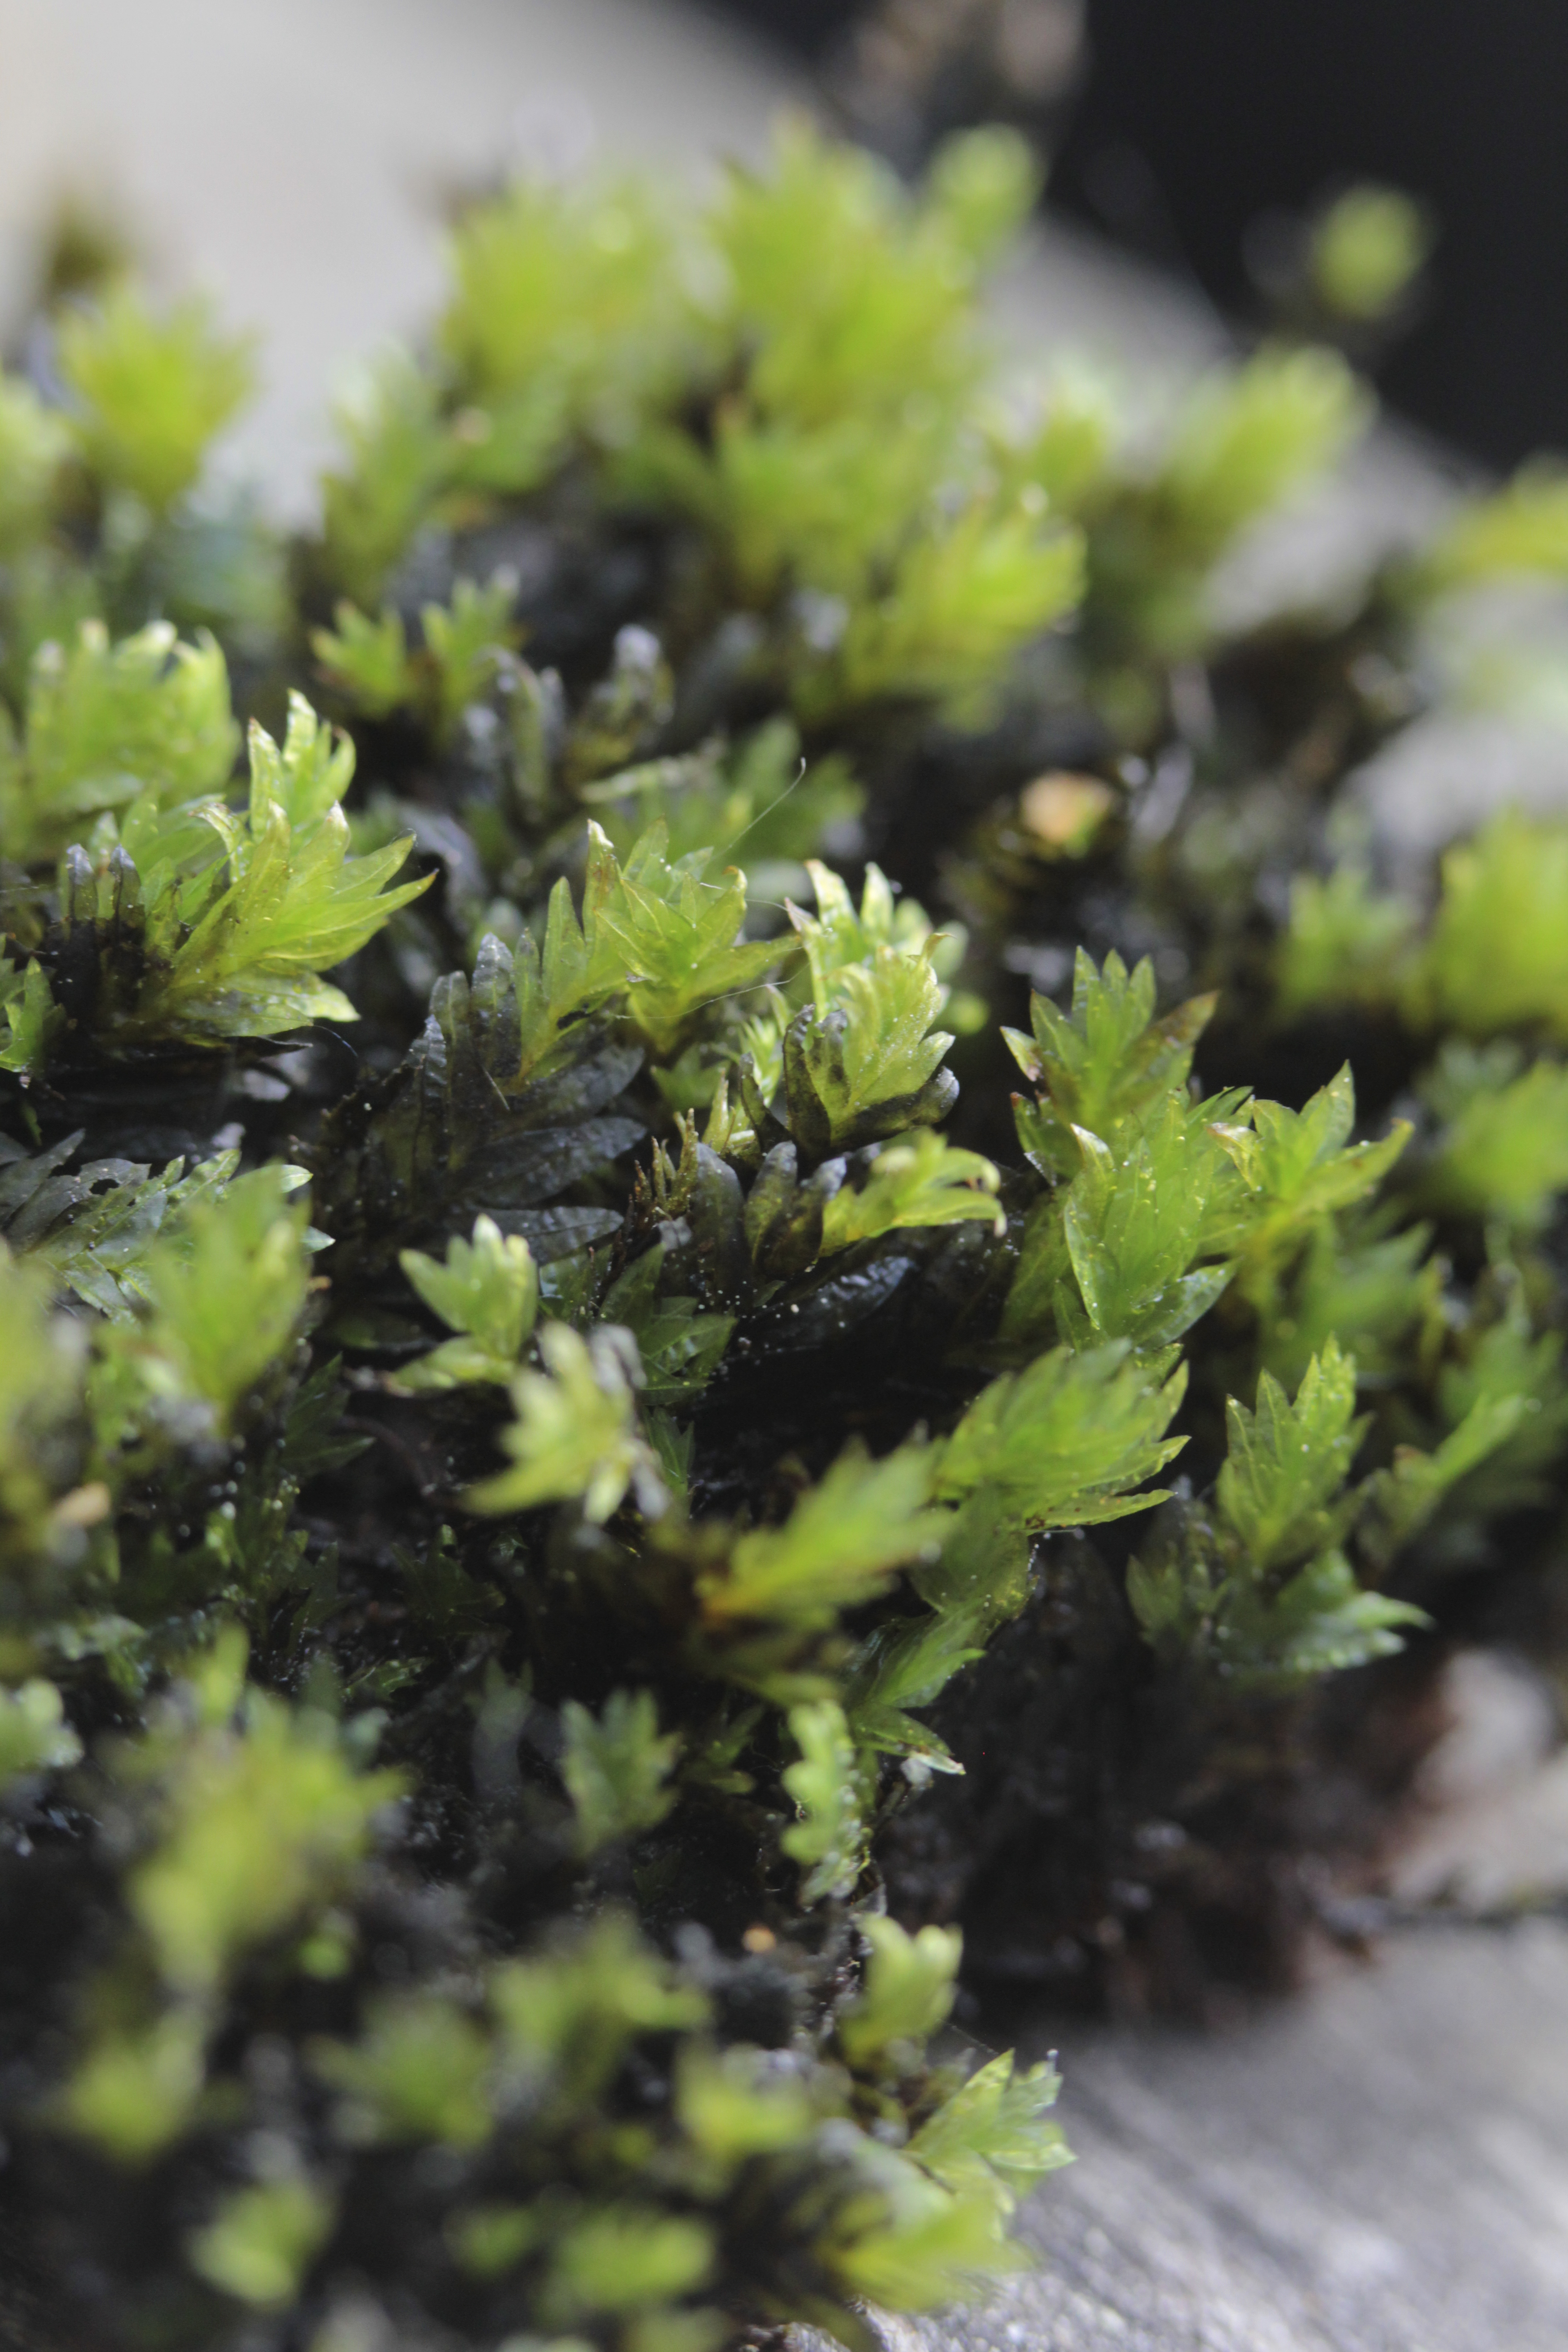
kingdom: Plantae
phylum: Bryophyta
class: Bryopsida
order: Bryales
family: Mniaceae
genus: Mnium
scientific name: Mnium hornum
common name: Swan's-neck leafy moss
